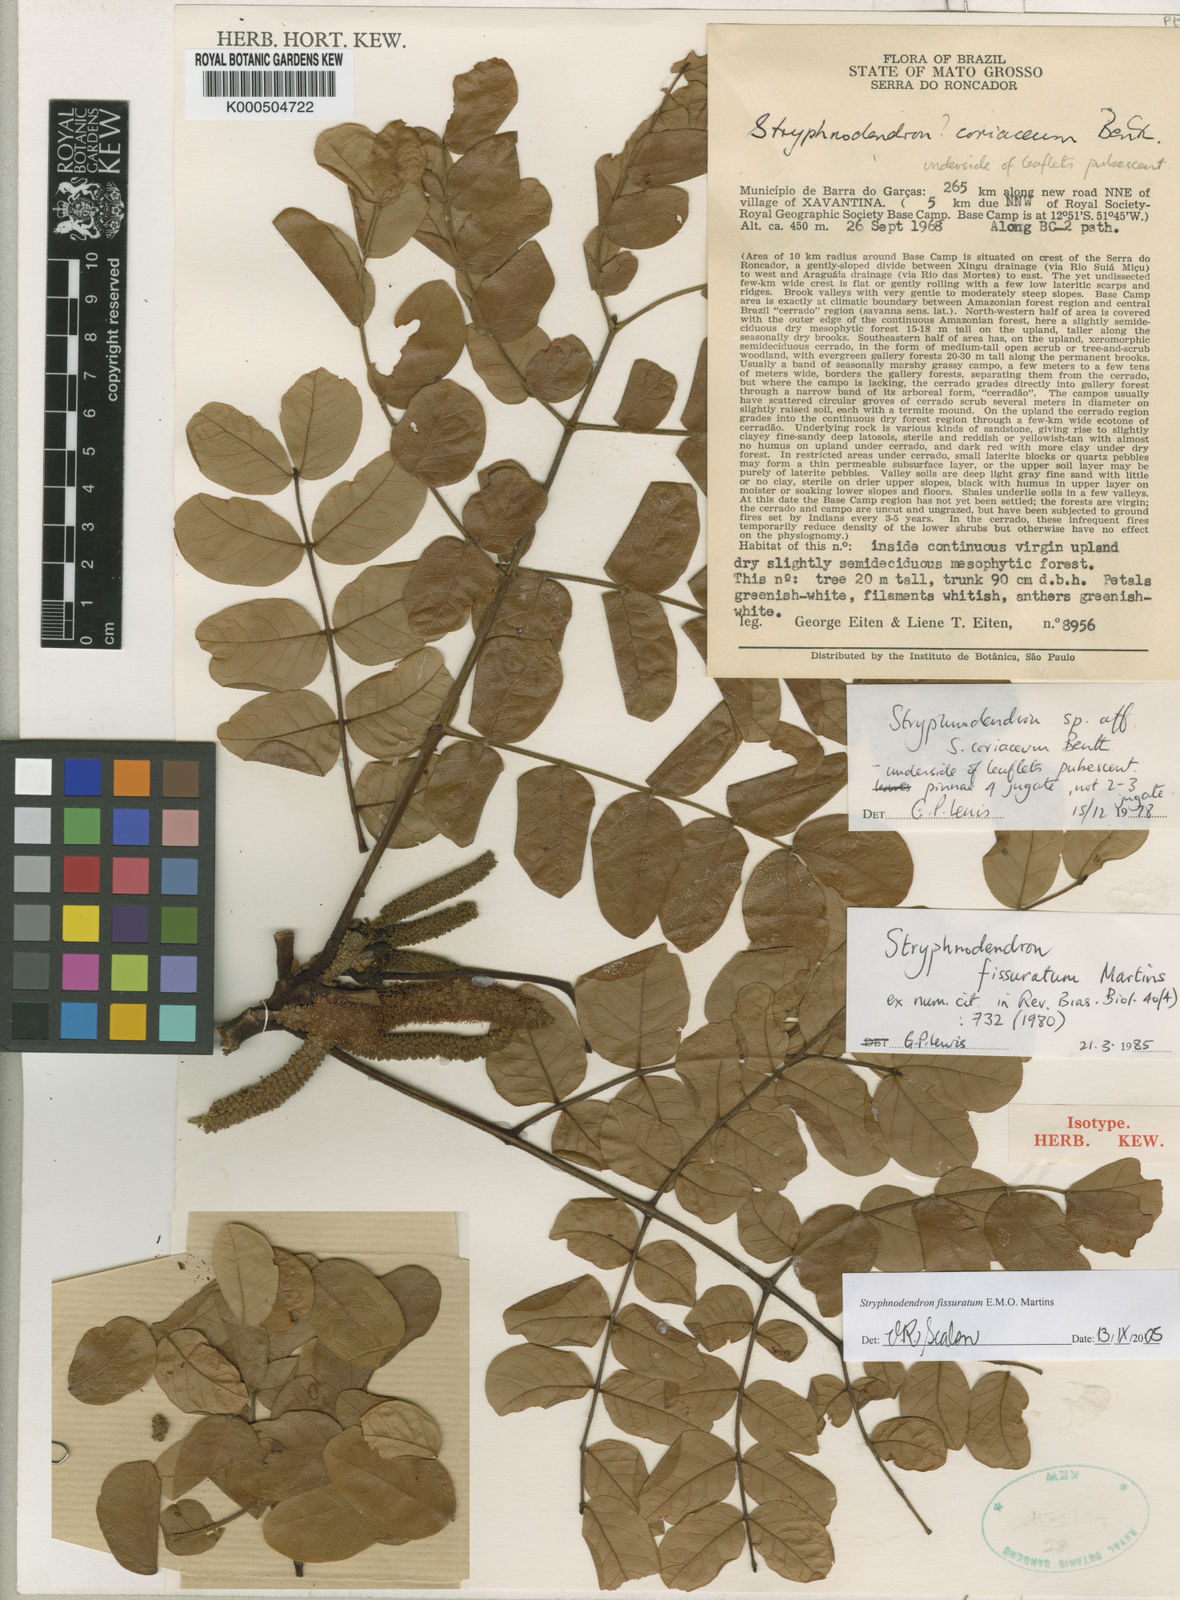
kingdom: Plantae
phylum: Tracheophyta
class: Magnoliopsida
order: Fabales
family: Fabaceae
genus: Stryphnodendron
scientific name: Stryphnodendron fissuratum
